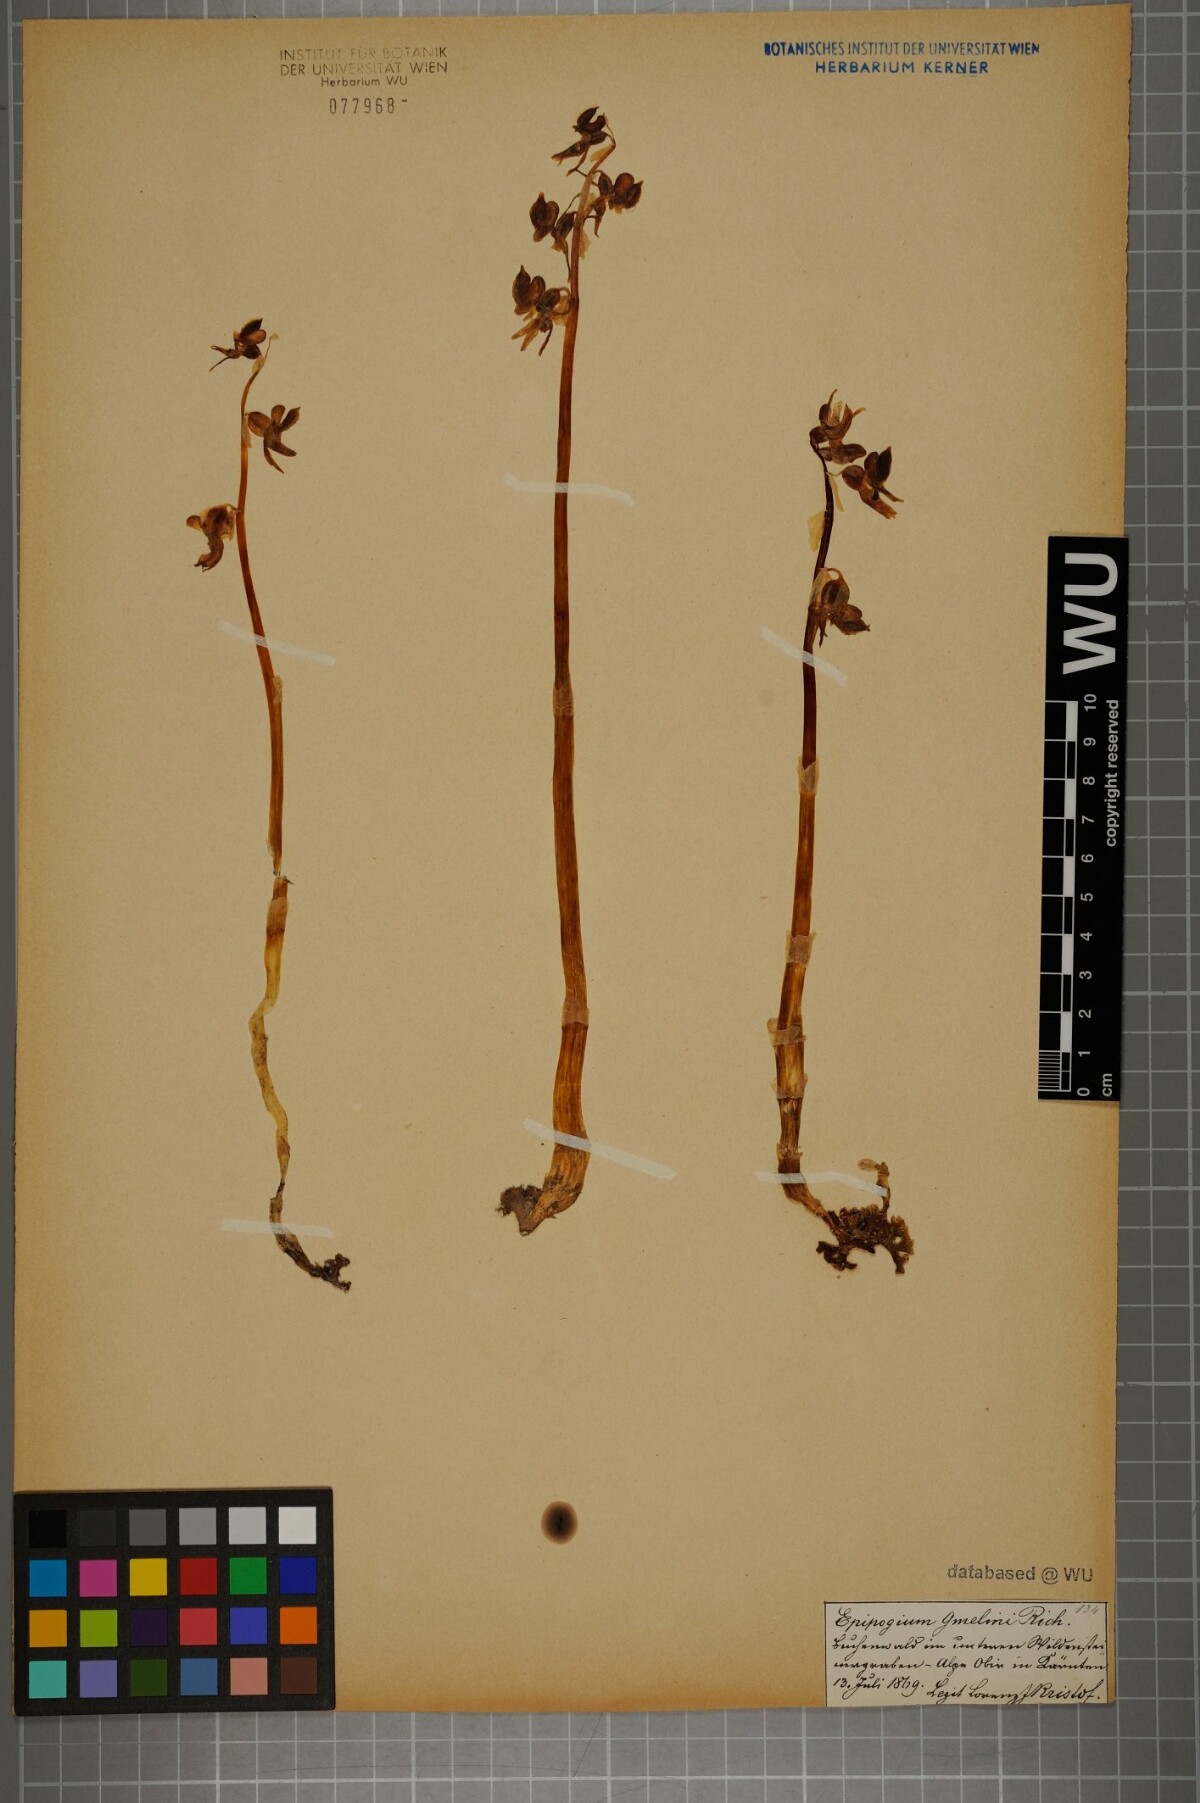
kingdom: Plantae
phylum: Tracheophyta
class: Liliopsida
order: Asparagales
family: Orchidaceae
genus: Epipogium
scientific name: Epipogium aphyllum
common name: Ghost orchid
